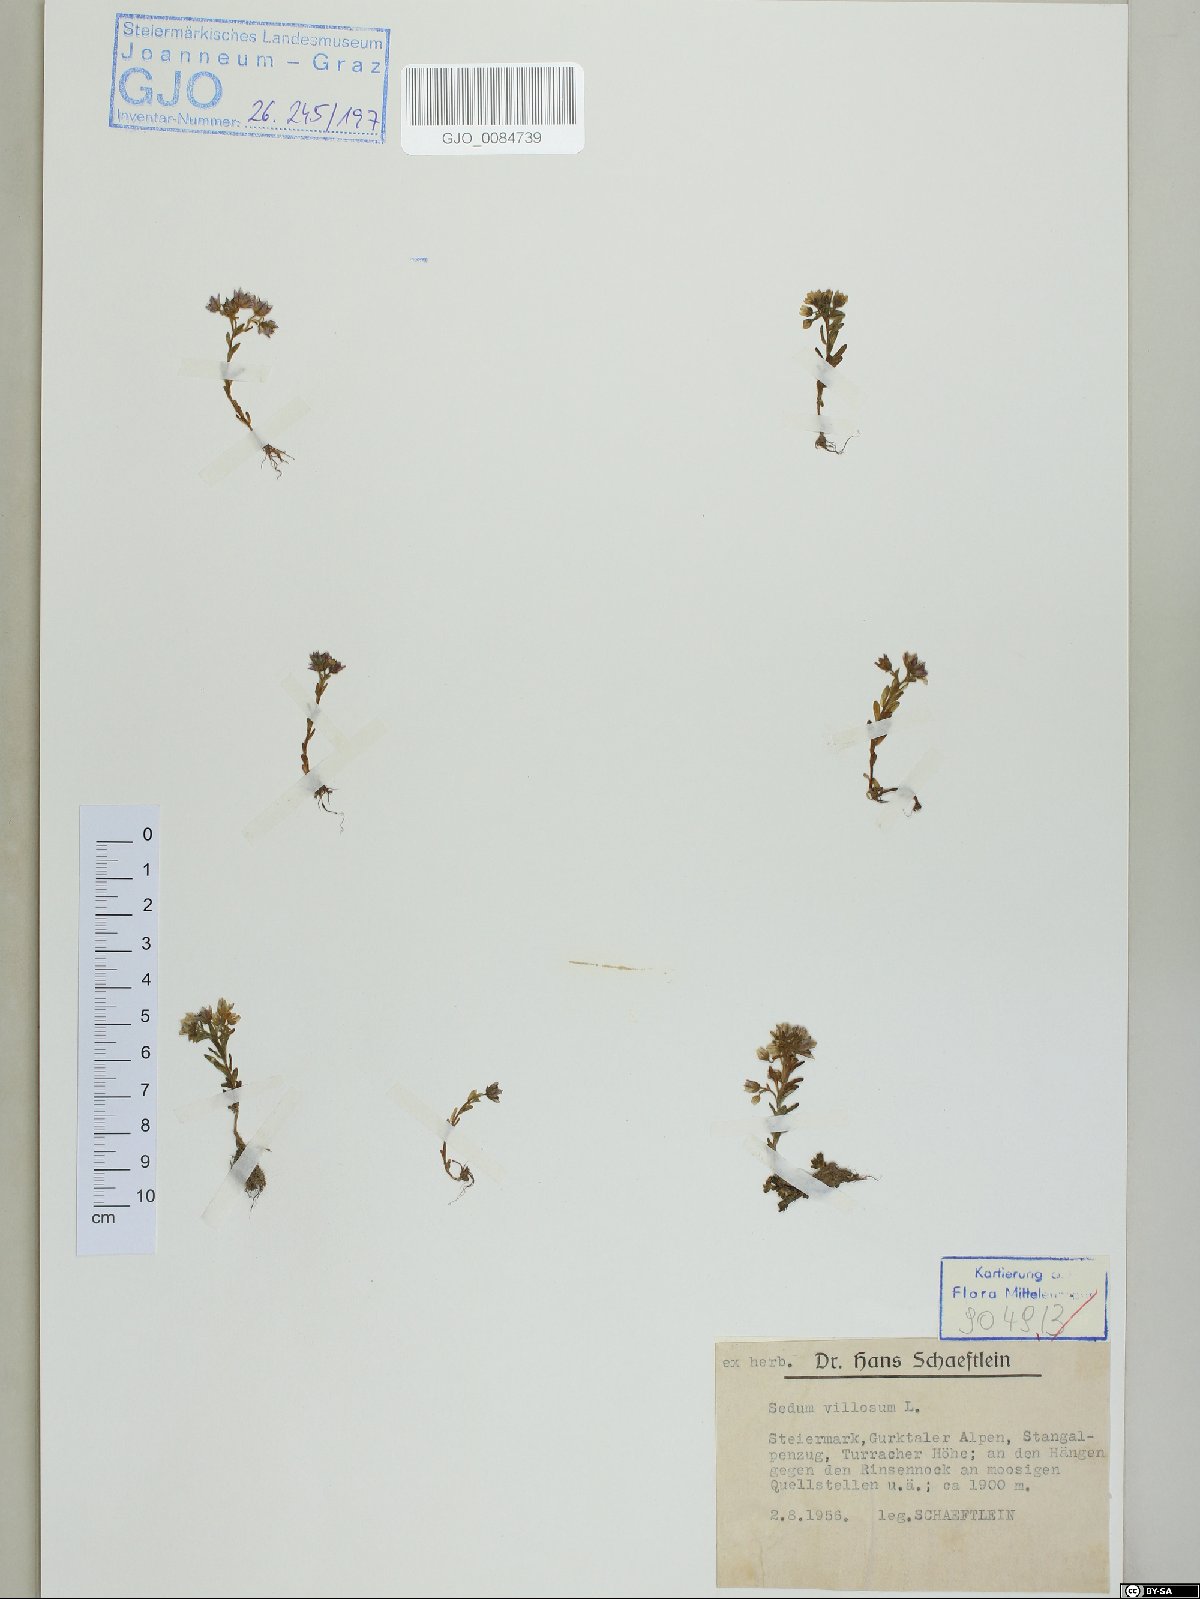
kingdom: Plantae
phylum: Tracheophyta
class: Magnoliopsida
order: Saxifragales
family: Crassulaceae
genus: Sedum
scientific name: Sedum villosum
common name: Hairy stonecrop
